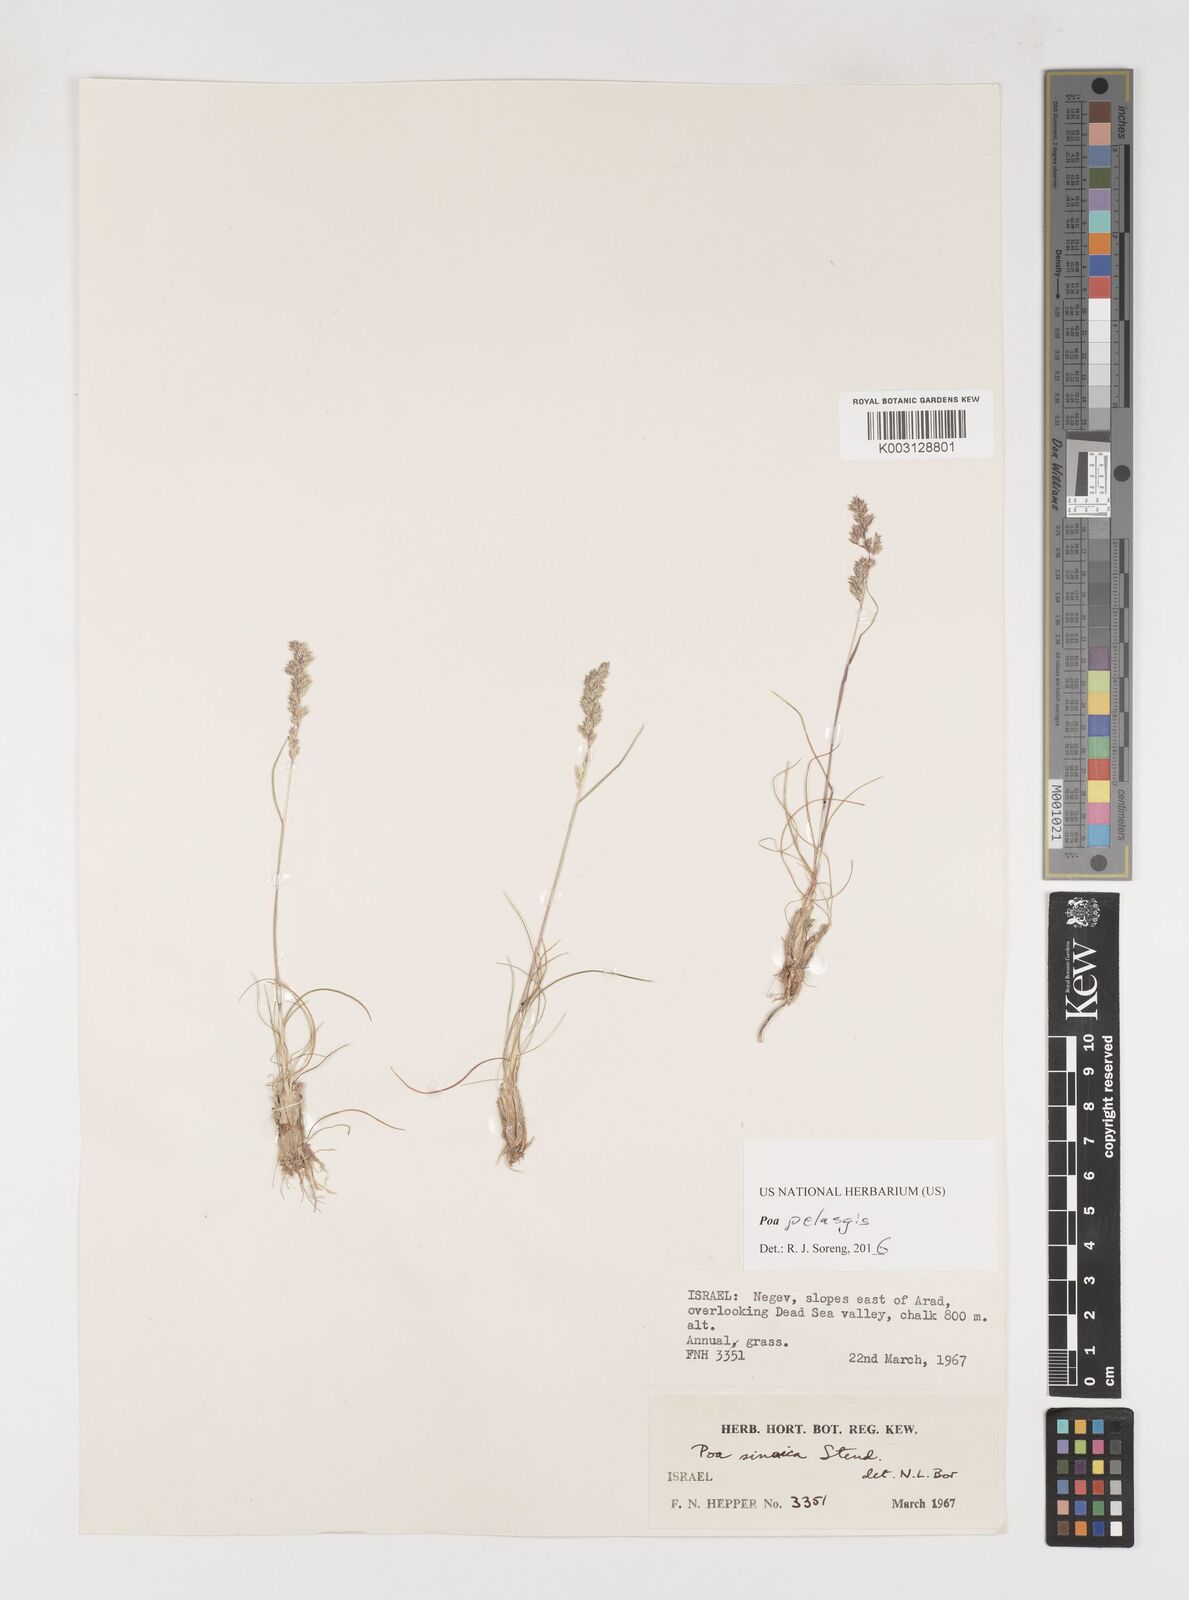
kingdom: Plantae
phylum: Tracheophyta
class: Liliopsida
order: Poales
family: Poaceae
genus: Poa
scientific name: Poa iconia
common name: Konya bluegrass
